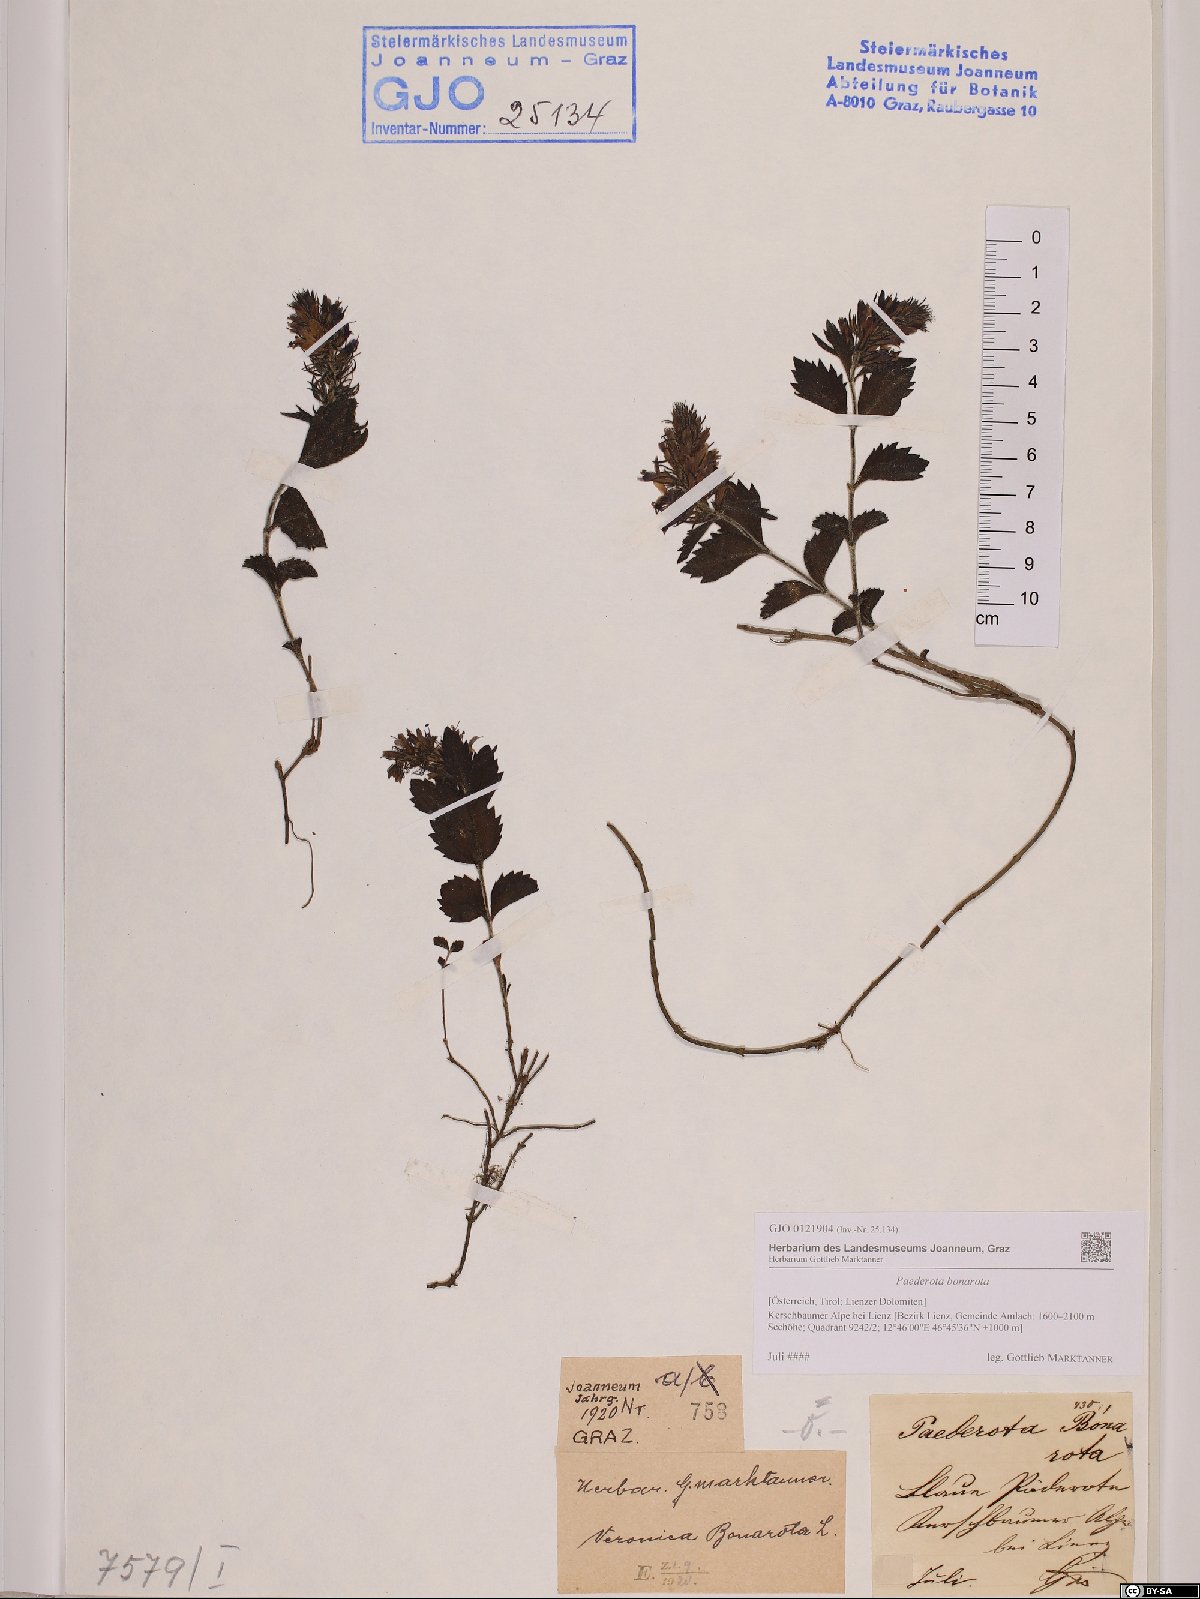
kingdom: Plantae
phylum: Tracheophyta
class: Magnoliopsida
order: Lamiales
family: Plantaginaceae
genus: Paederota
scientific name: Paederota bonarota
